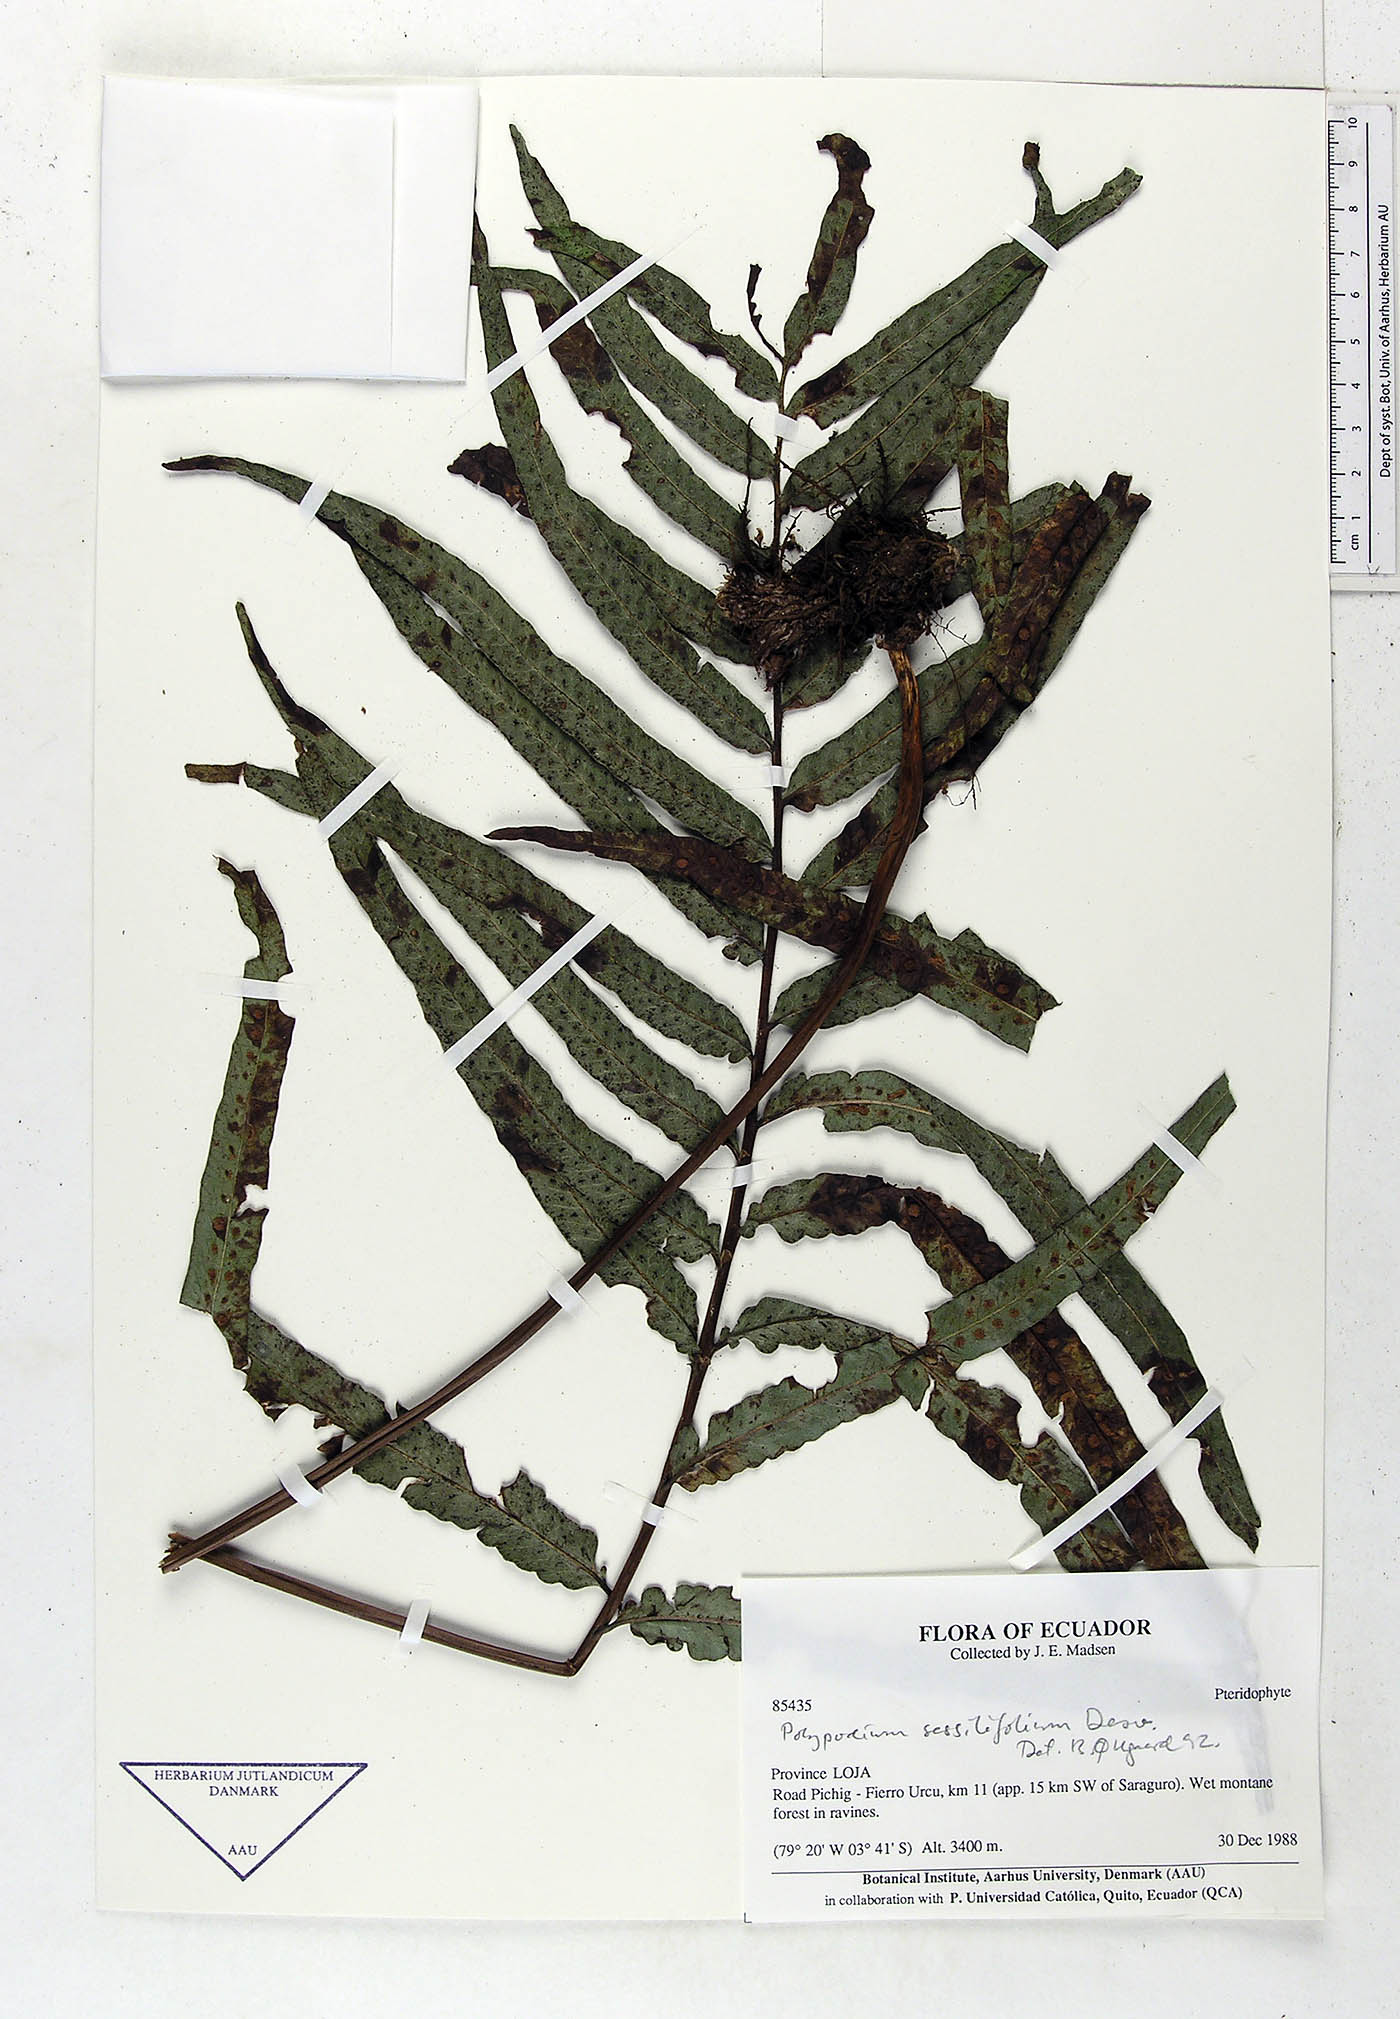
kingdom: Plantae
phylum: Tracheophyta
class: Polypodiopsida
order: Polypodiales
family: Polypodiaceae
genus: Serpocaulon
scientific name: Serpocaulon sessilifolium
